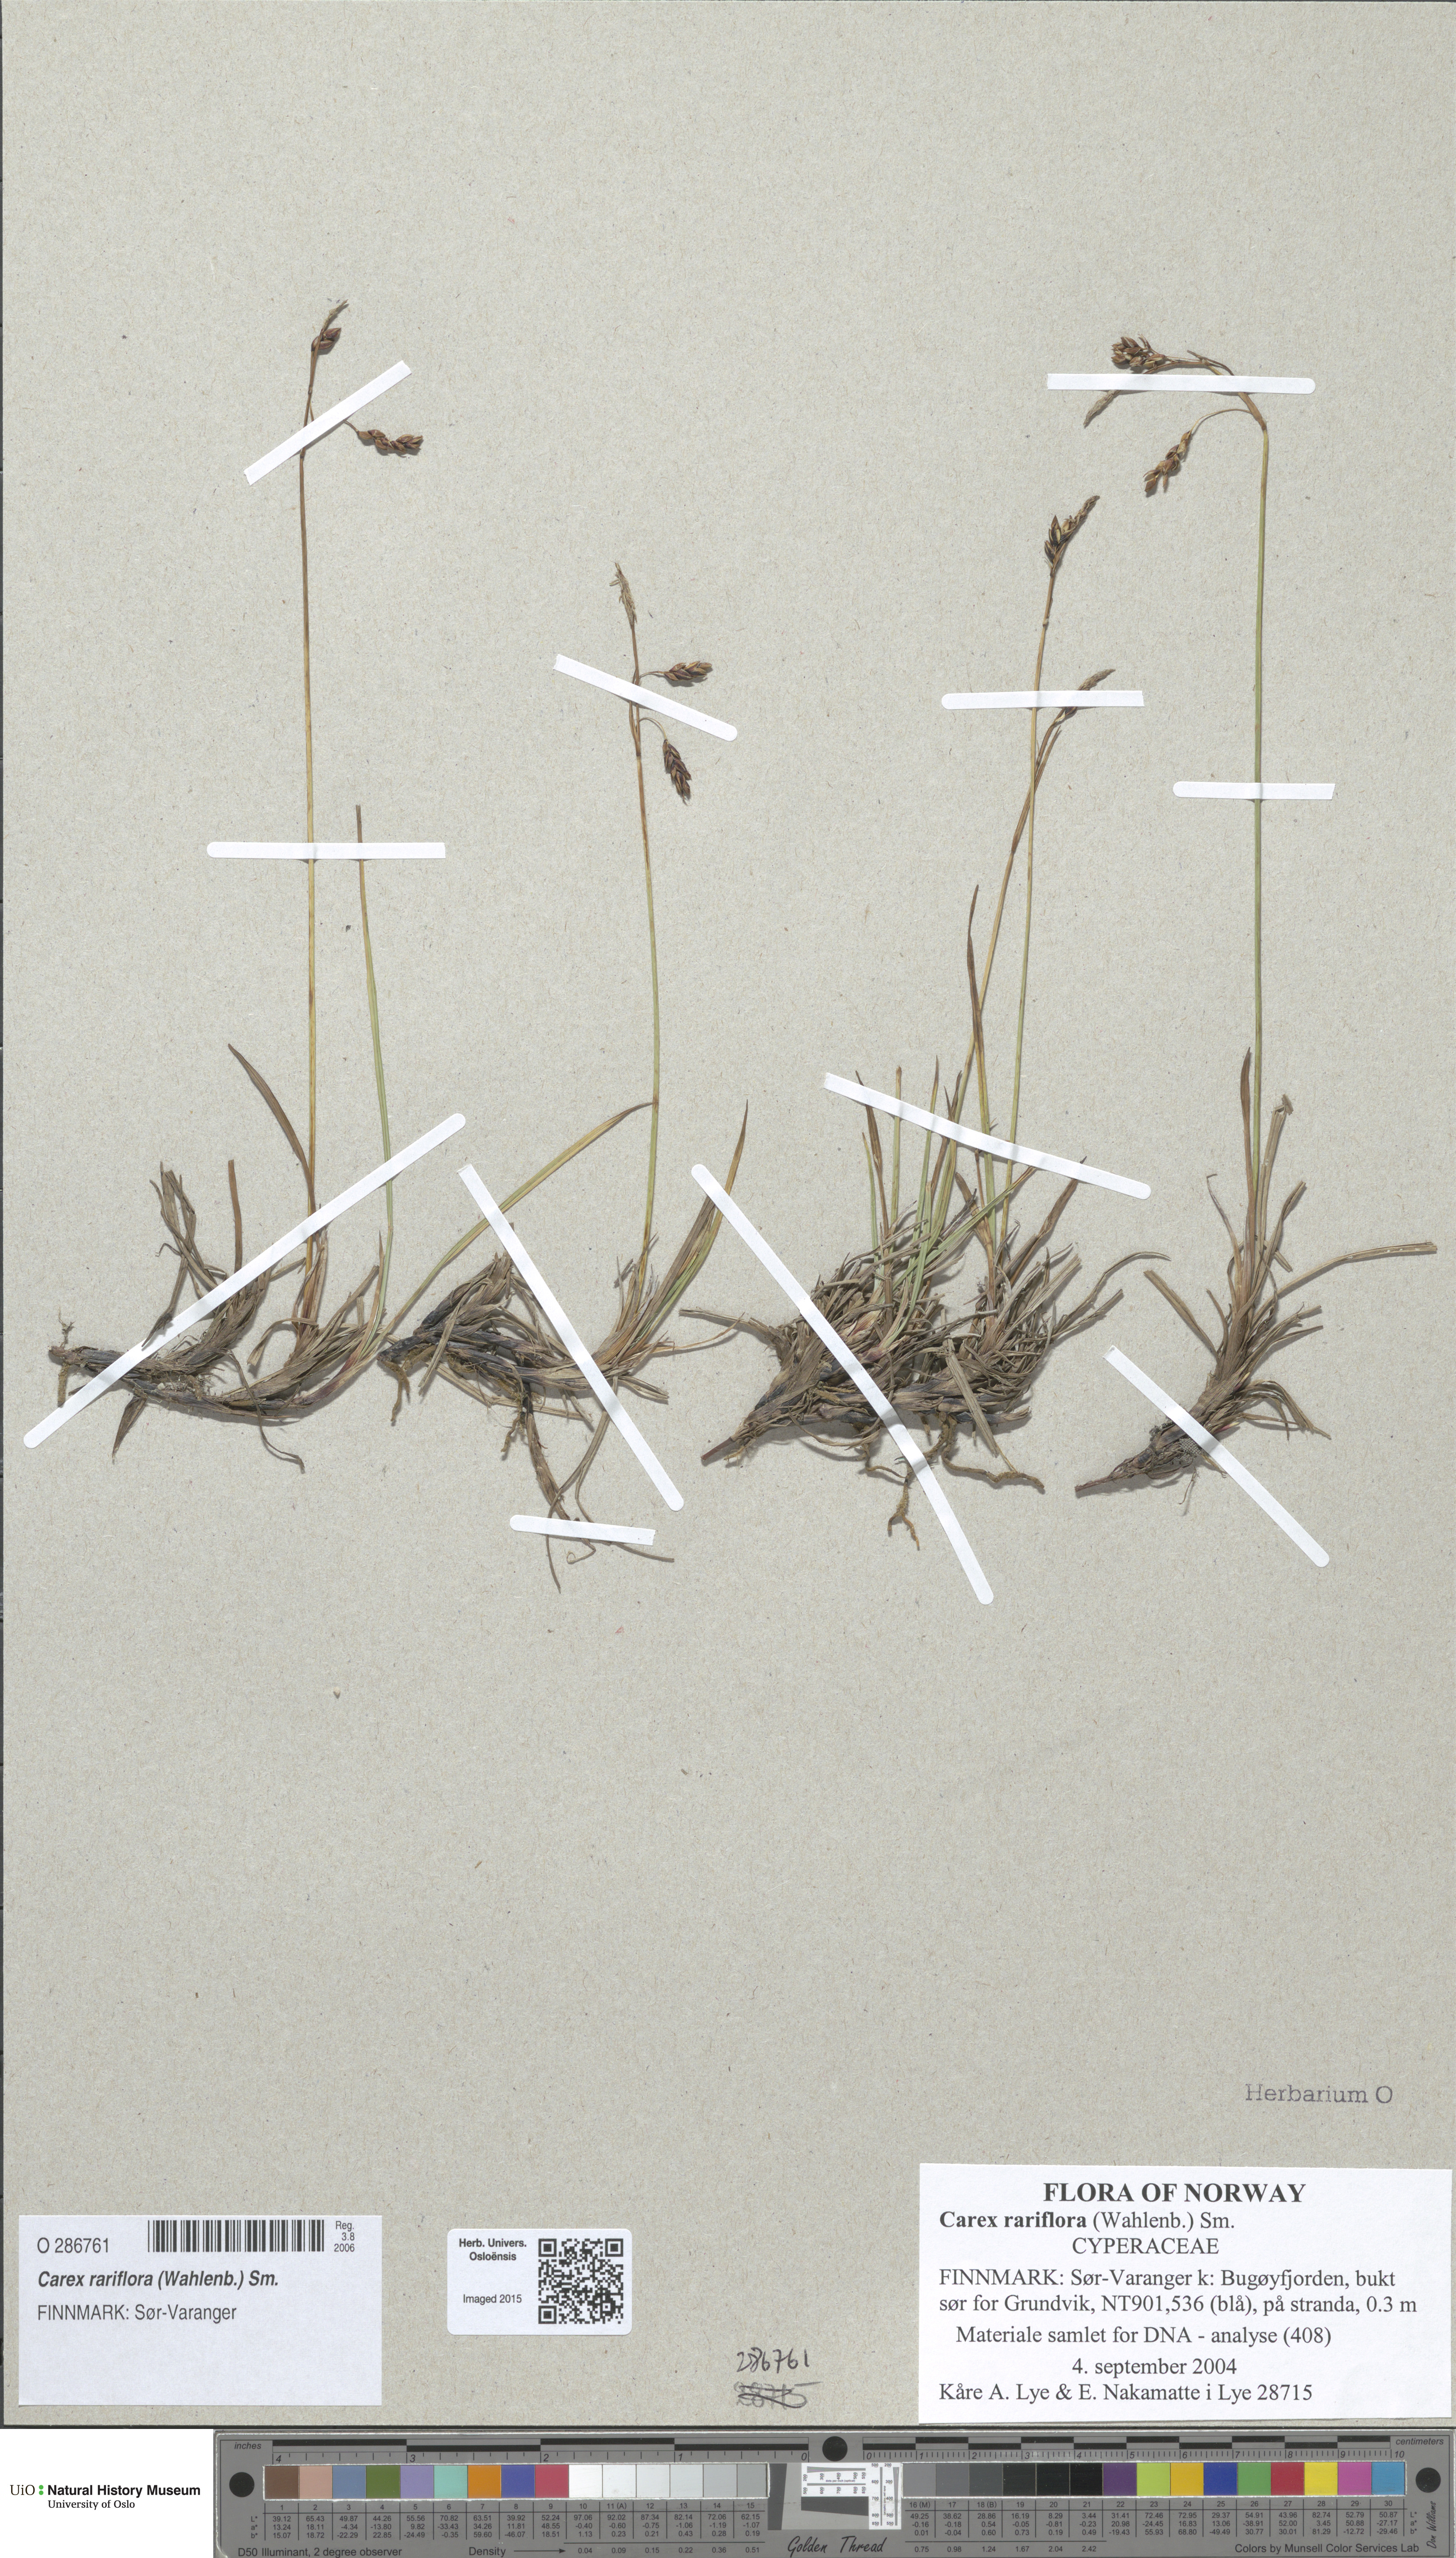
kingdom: Plantae
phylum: Tracheophyta
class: Liliopsida
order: Poales
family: Cyperaceae
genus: Carex
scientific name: Carex rariflora
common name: Loose-flowered alpine sedge
